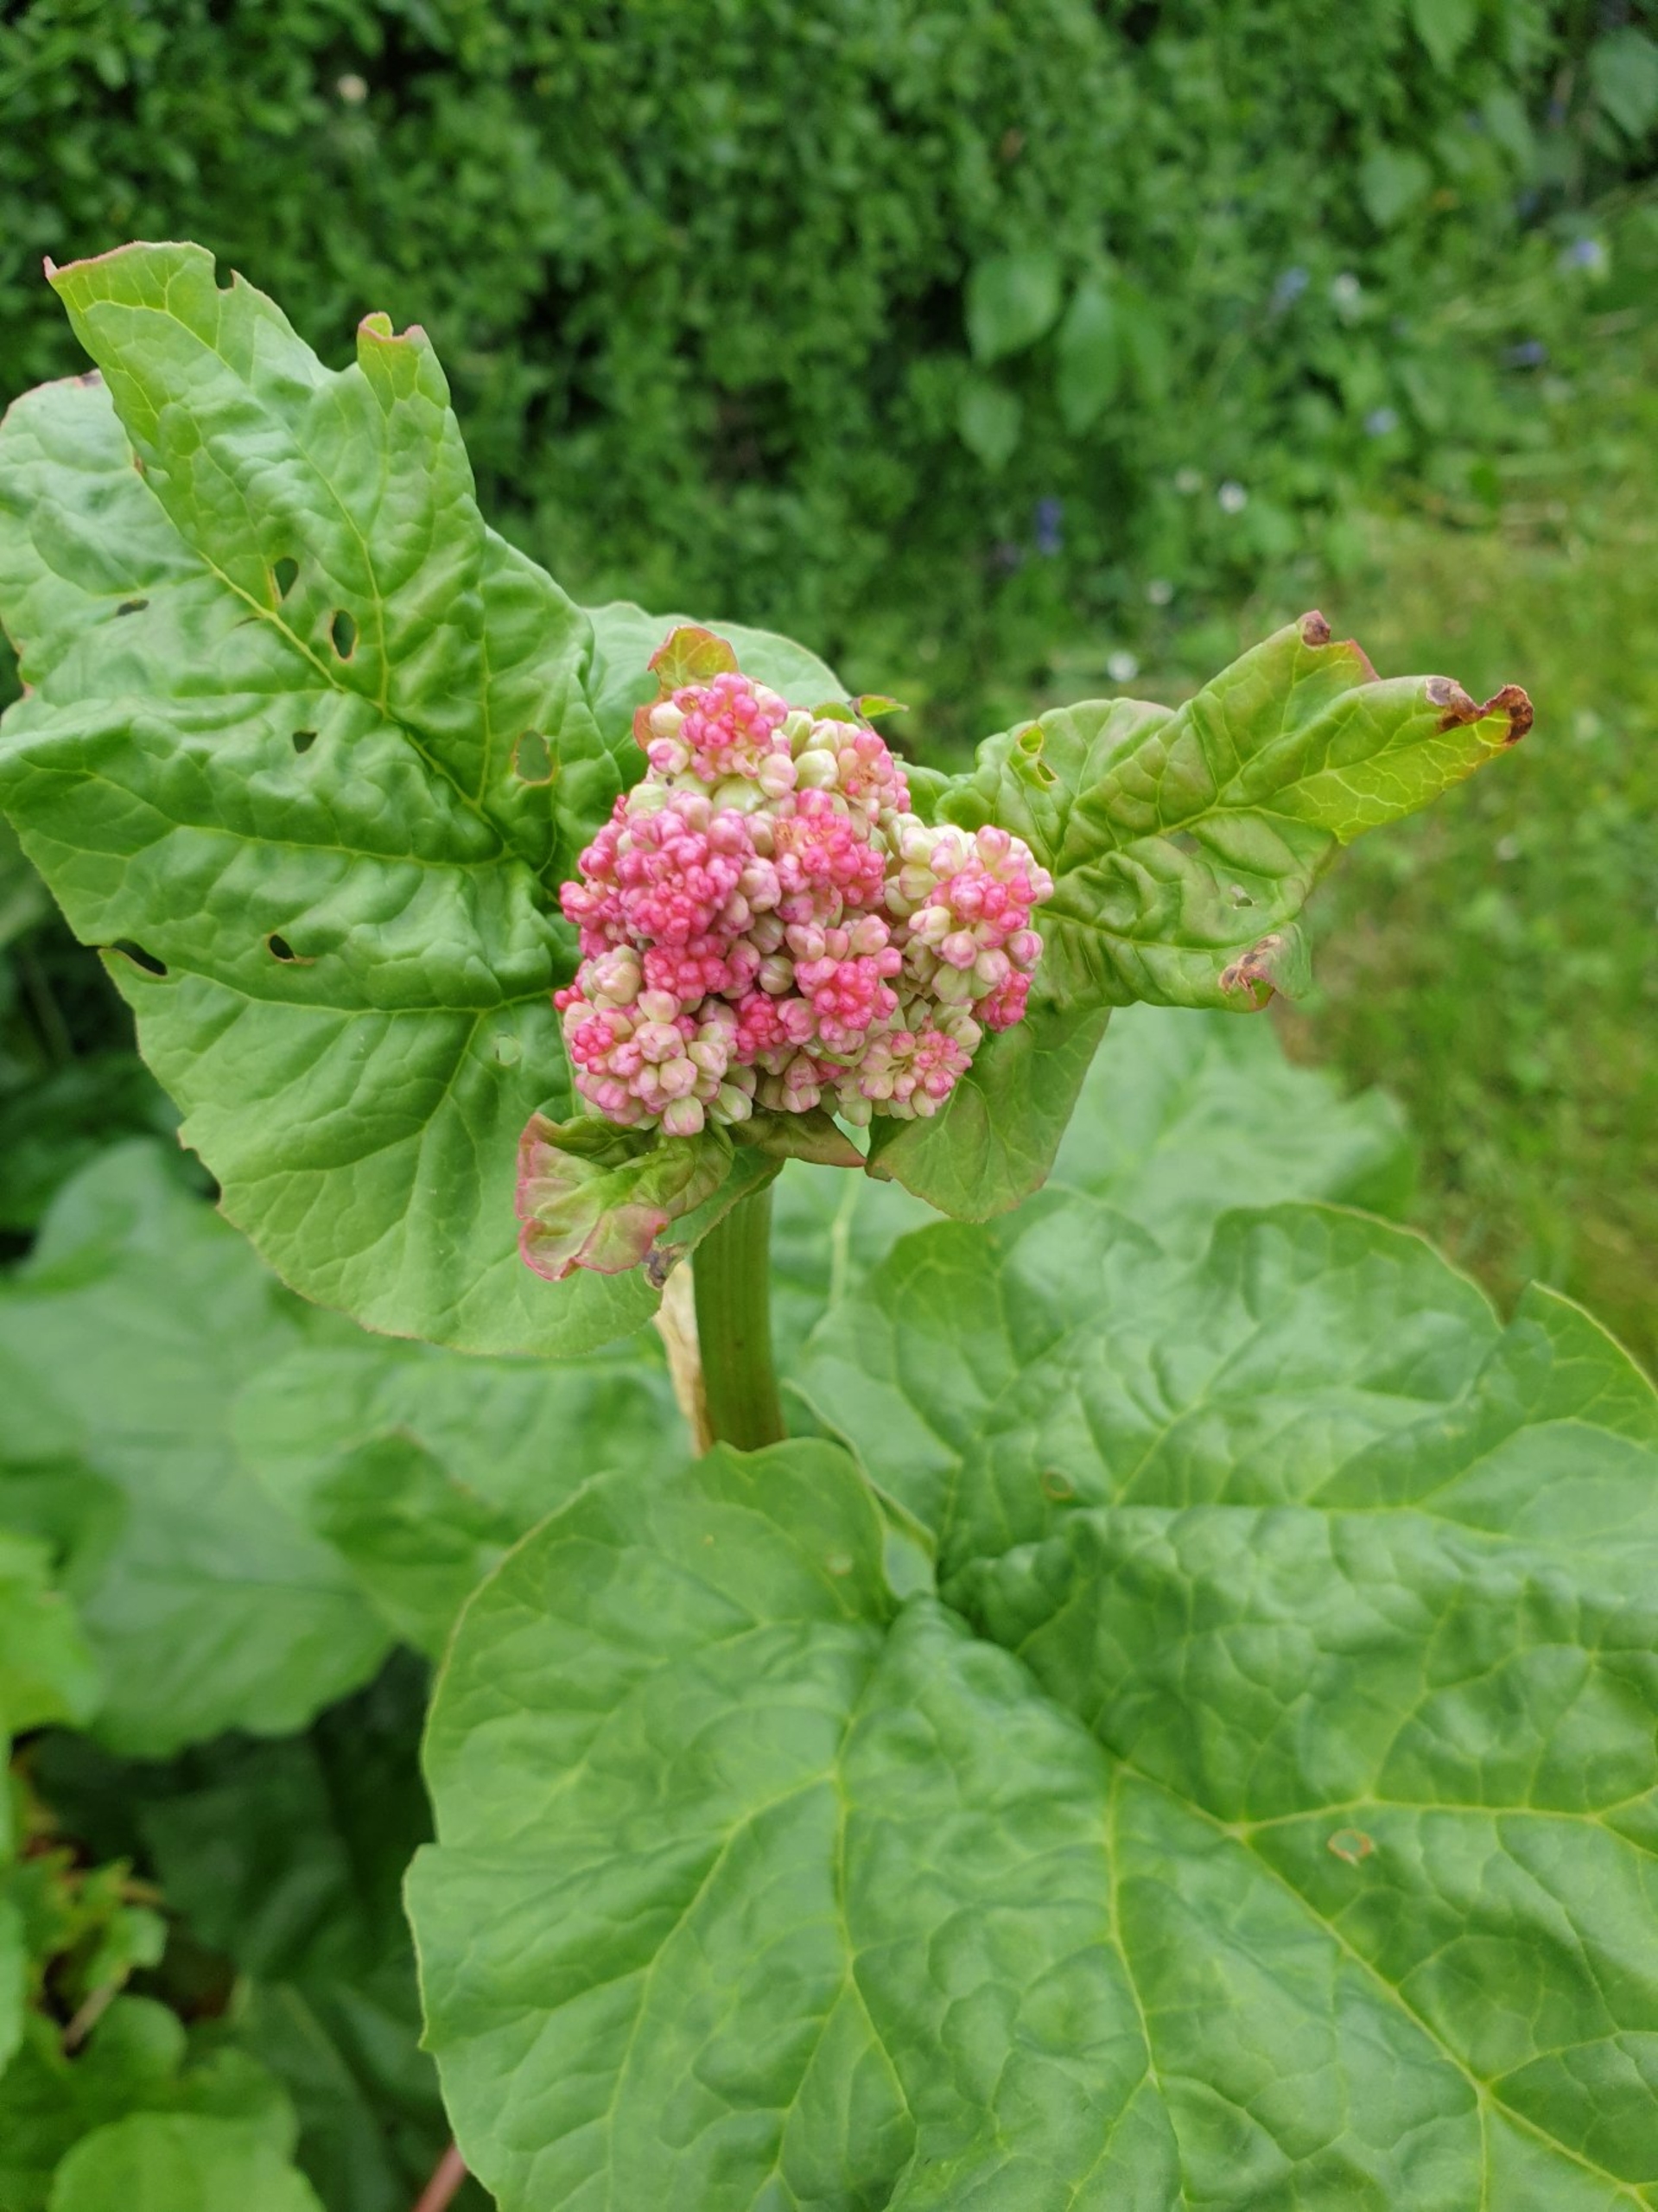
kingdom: Plantae
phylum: Tracheophyta
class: Magnoliopsida
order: Caryophyllales
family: Polygonaceae
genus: Rheum
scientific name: Rheum rhabarbarum
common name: Rabarber
